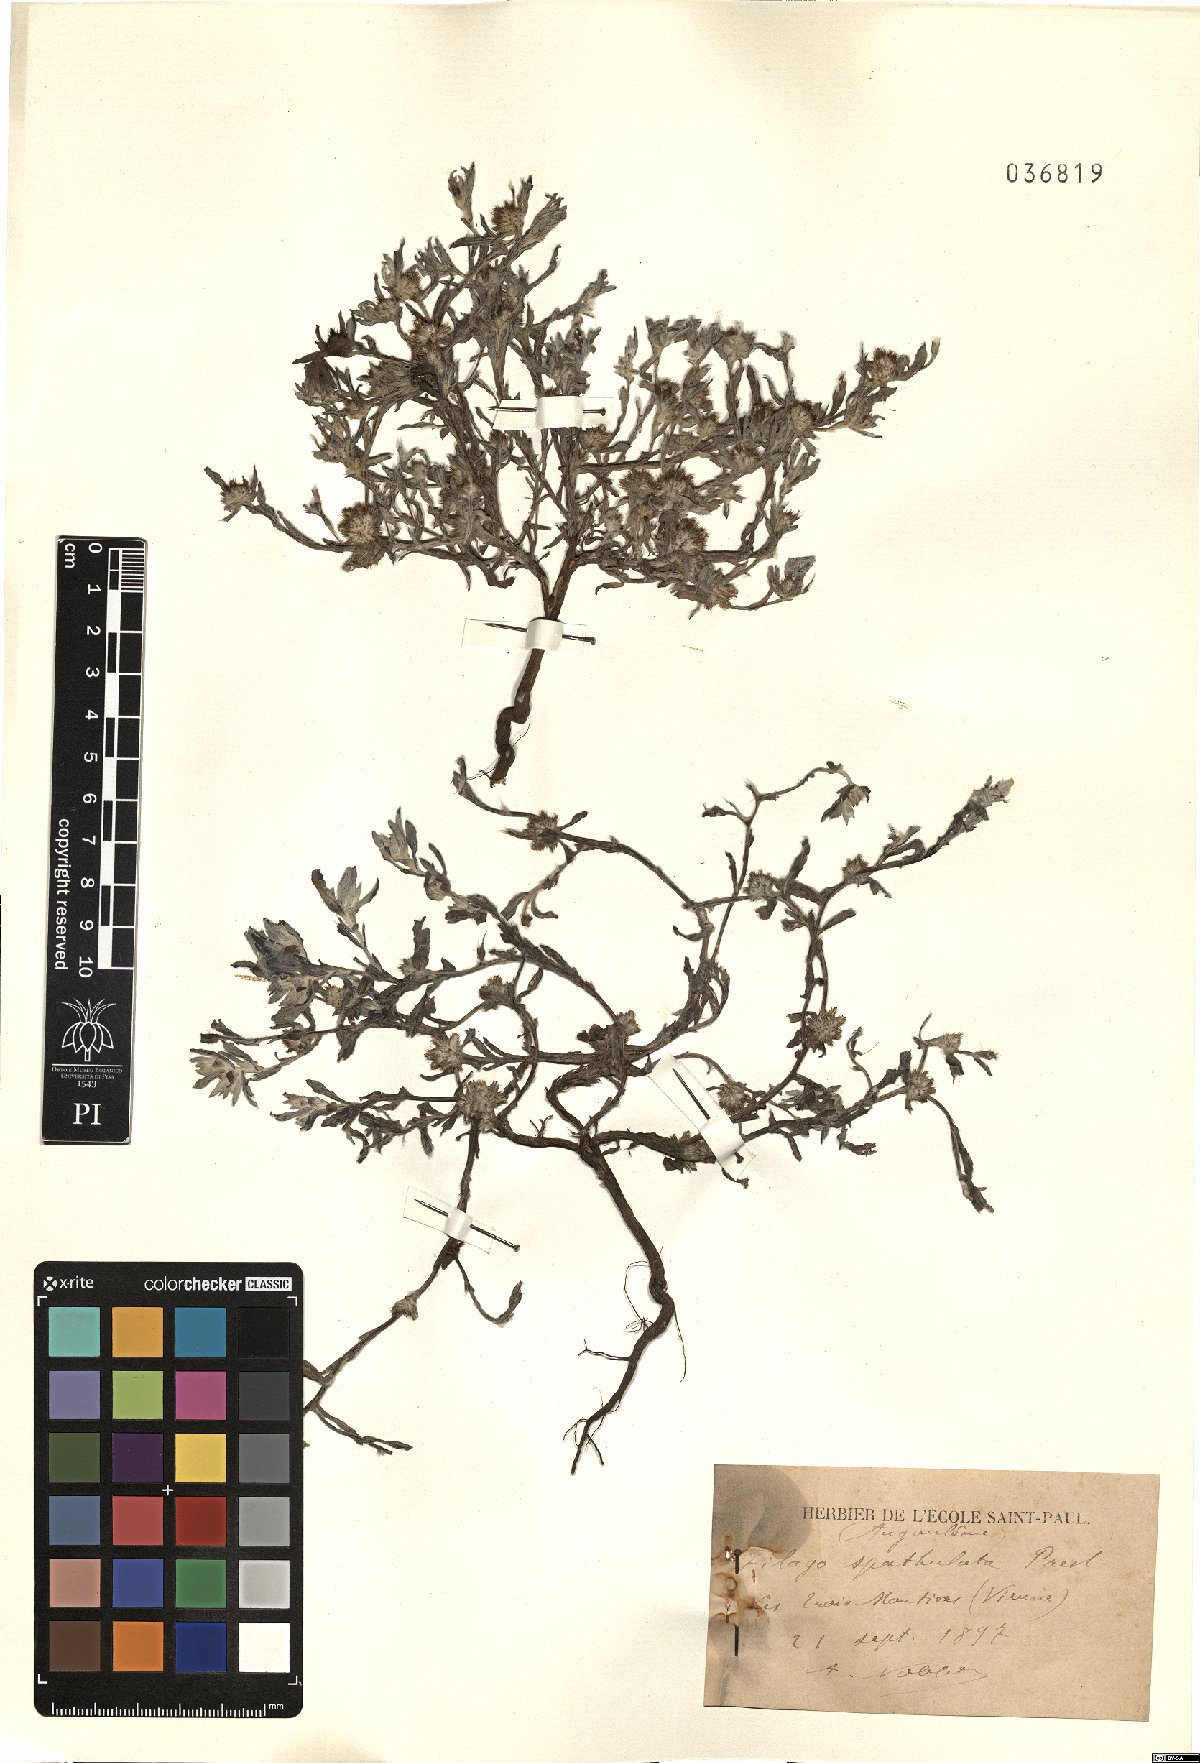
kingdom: Plantae
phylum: Tracheophyta
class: Magnoliopsida
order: Asterales
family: Asteraceae
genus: Filago
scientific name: Filago pyramidata
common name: Broad-leaved cudweed
